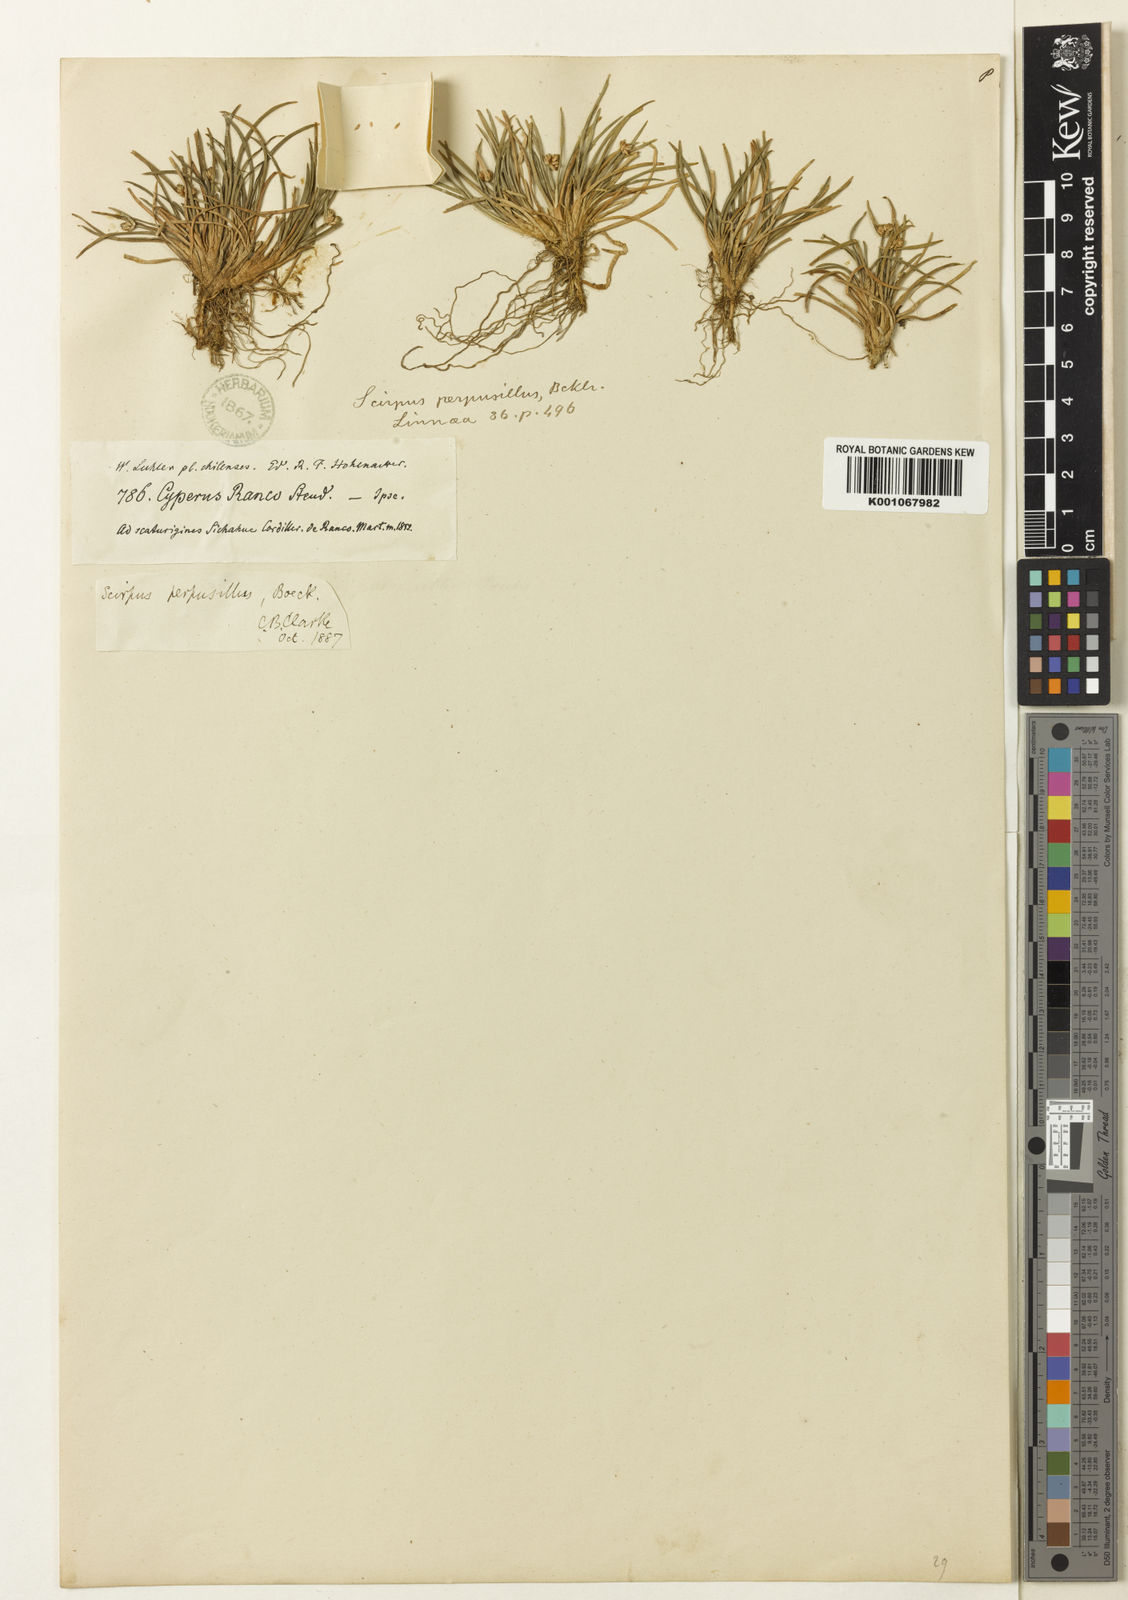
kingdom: Plantae
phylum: Tracheophyta
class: Liliopsida
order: Poales
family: Cyperaceae
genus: Isolepis
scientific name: Isolepis ranko
